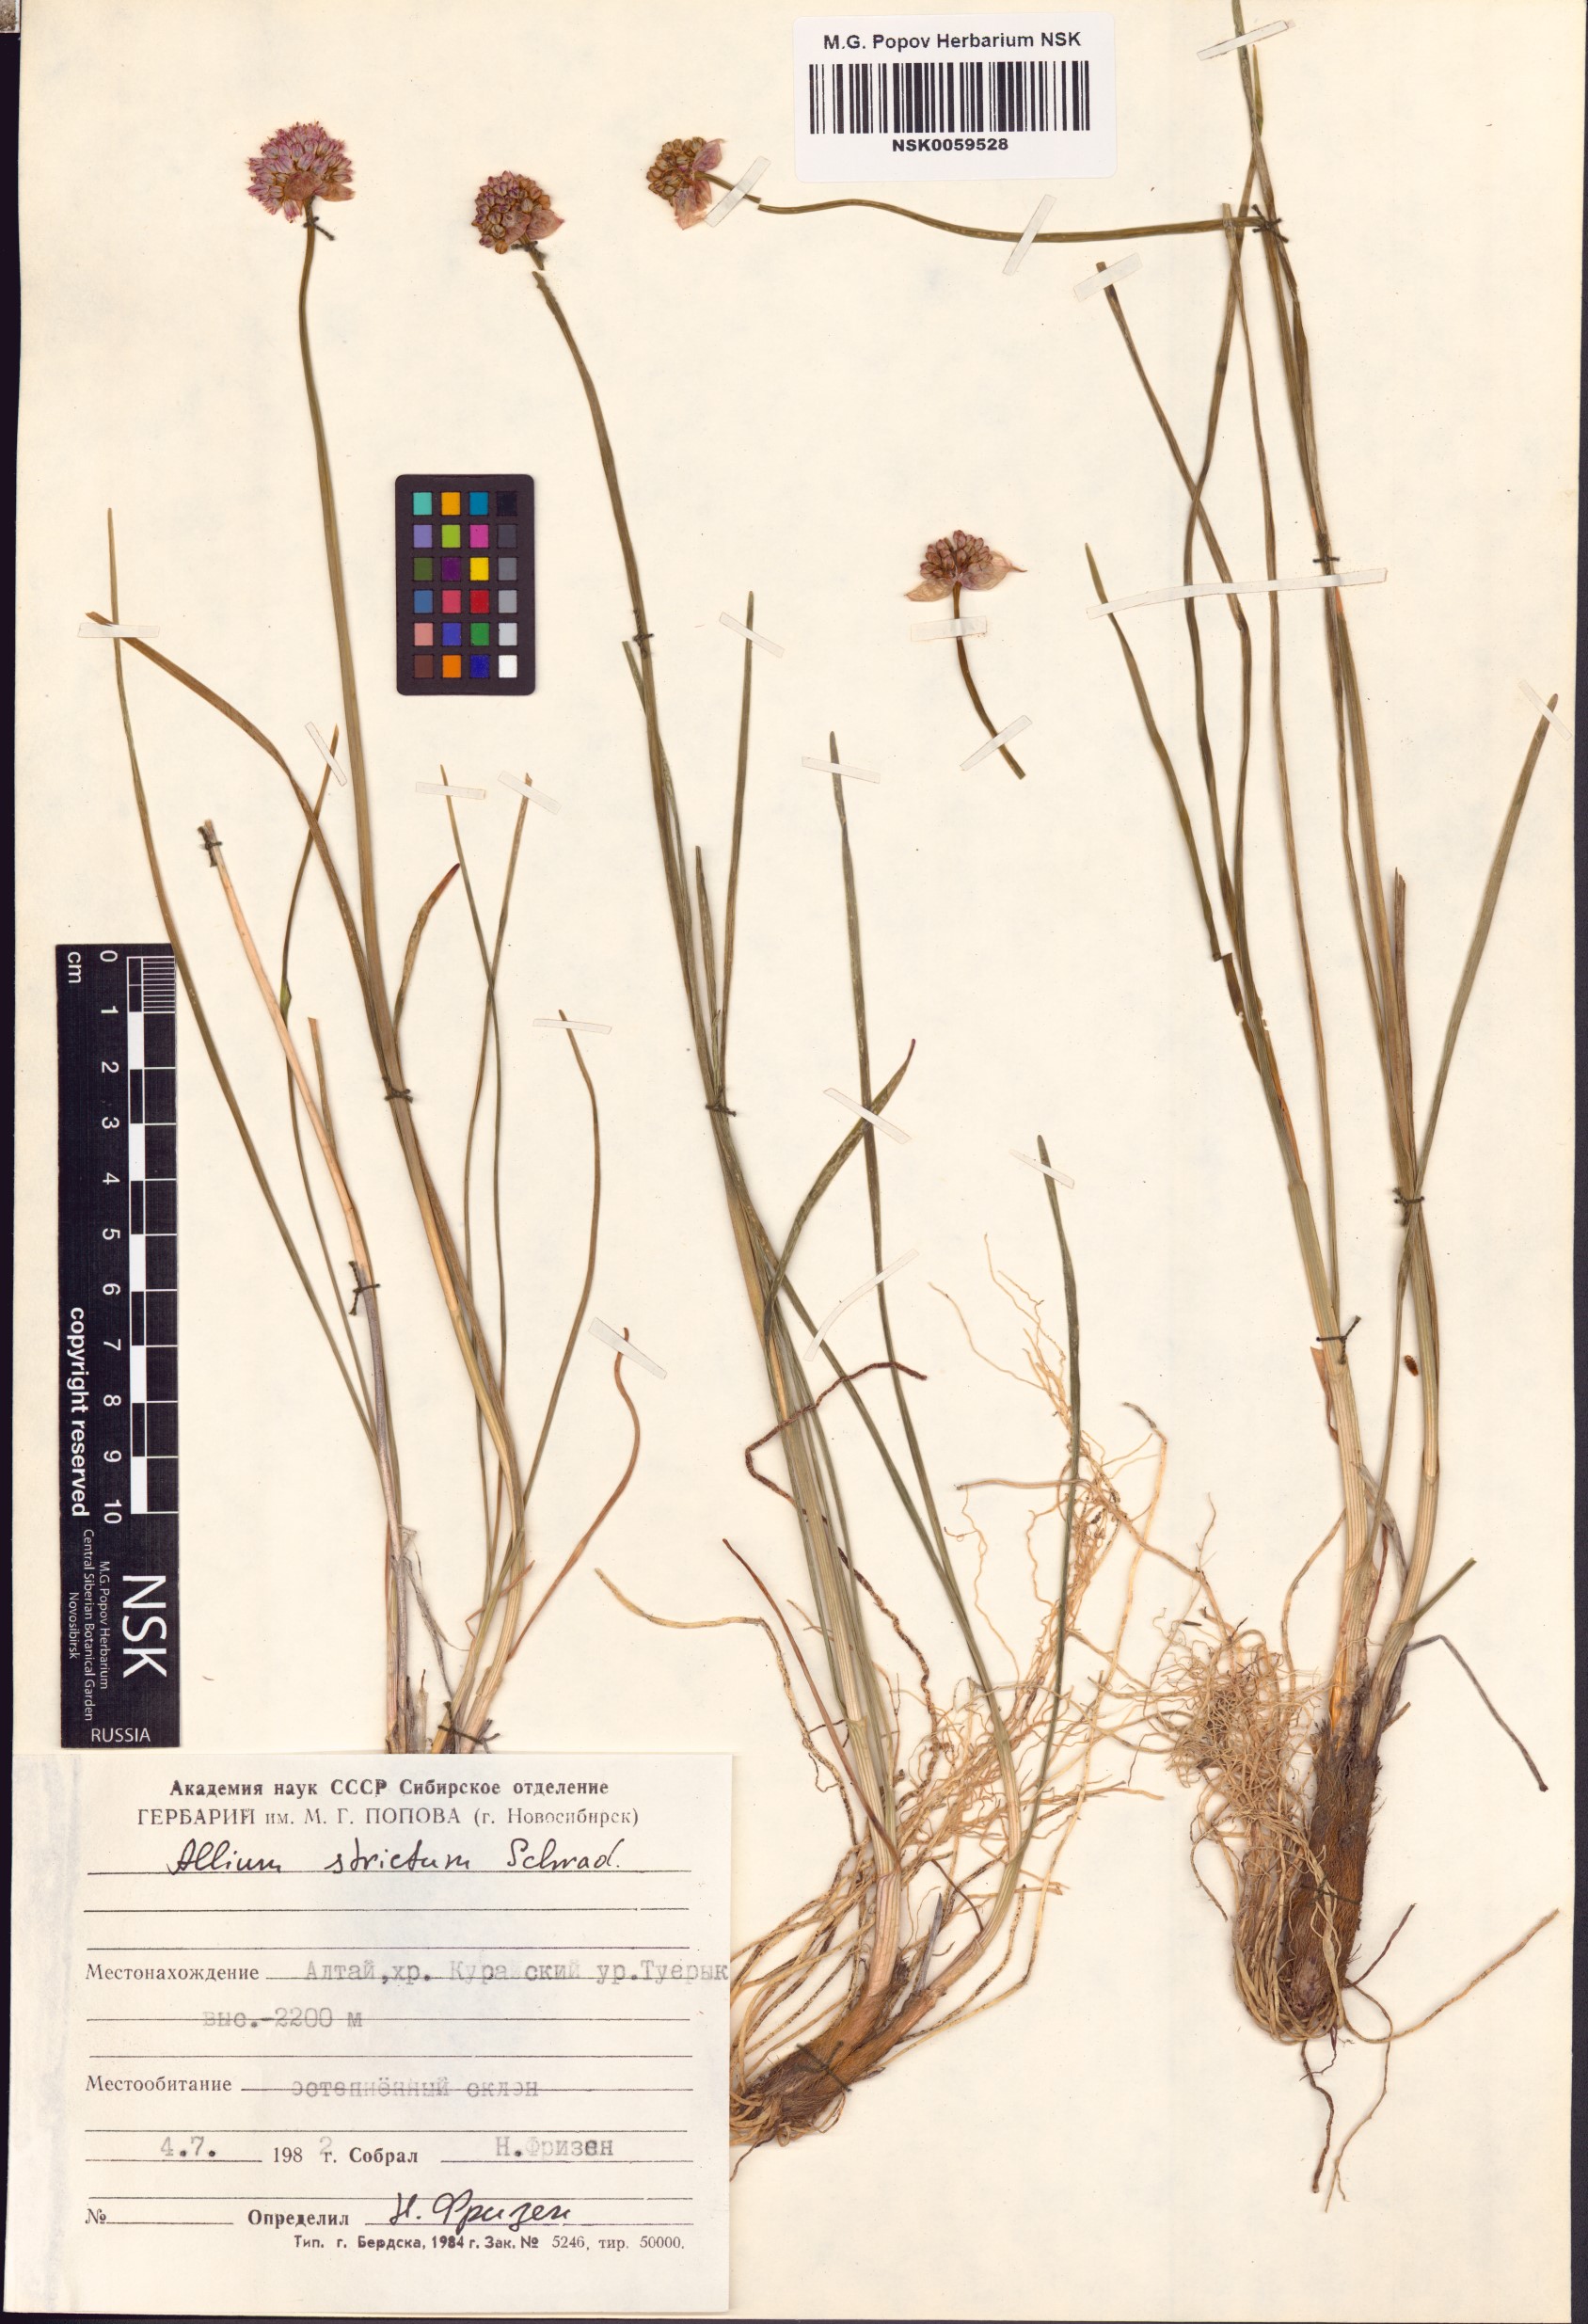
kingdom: Plantae
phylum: Tracheophyta
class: Liliopsida
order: Asparagales
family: Amaryllidaceae
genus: Allium
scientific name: Allium strictum
